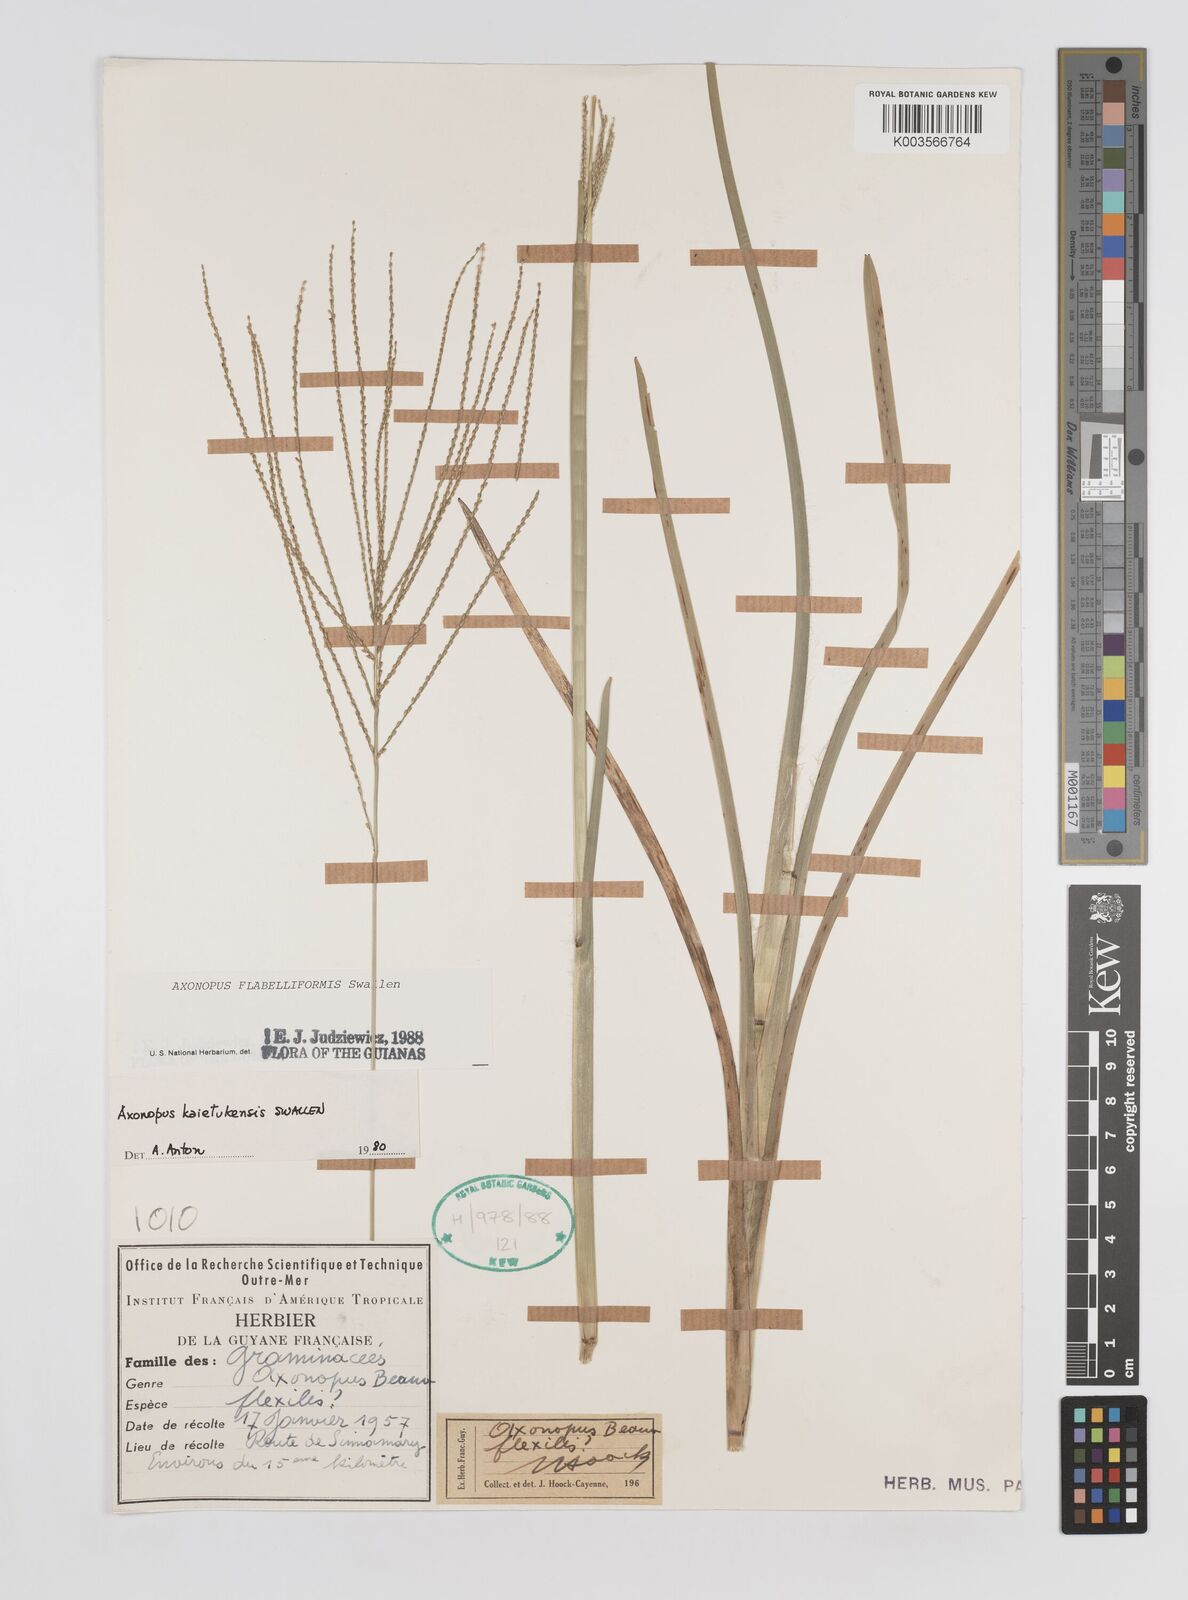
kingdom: Plantae
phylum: Tracheophyta
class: Liliopsida
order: Poales
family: Poaceae
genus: Axonopus
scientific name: Axonopus flabelliformis
